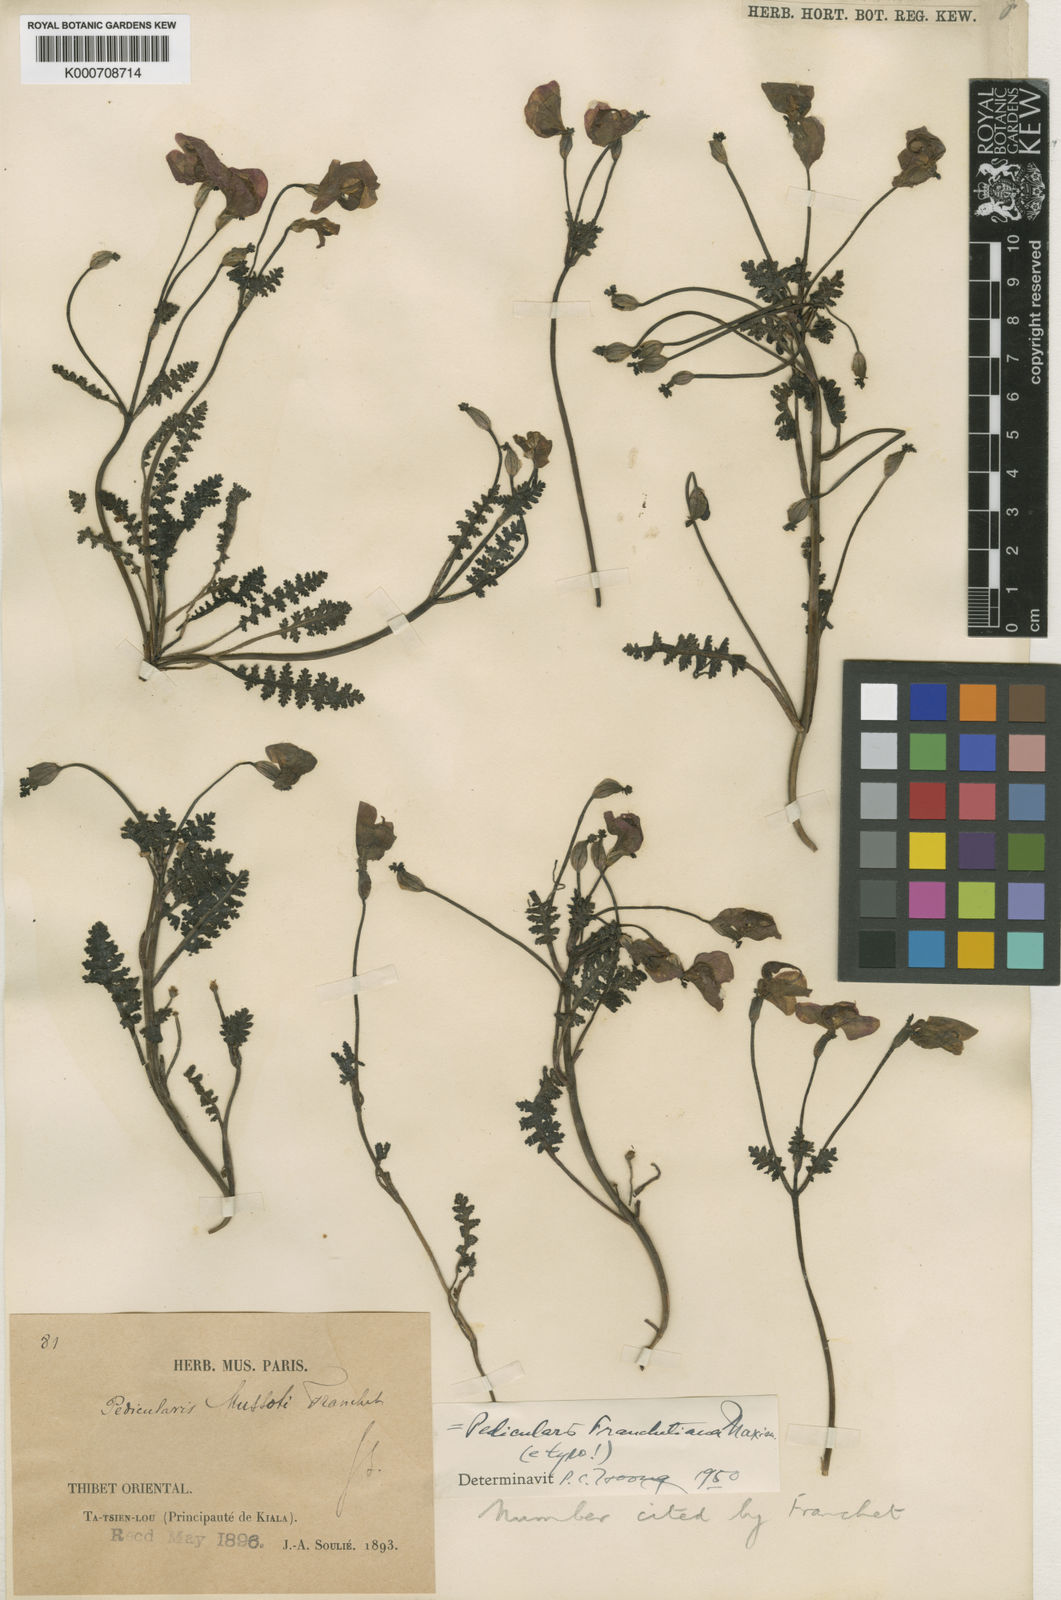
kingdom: Plantae
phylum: Tracheophyta
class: Magnoliopsida
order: Lamiales
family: Orobanchaceae
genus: Pedicularis
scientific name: Pedicularis
